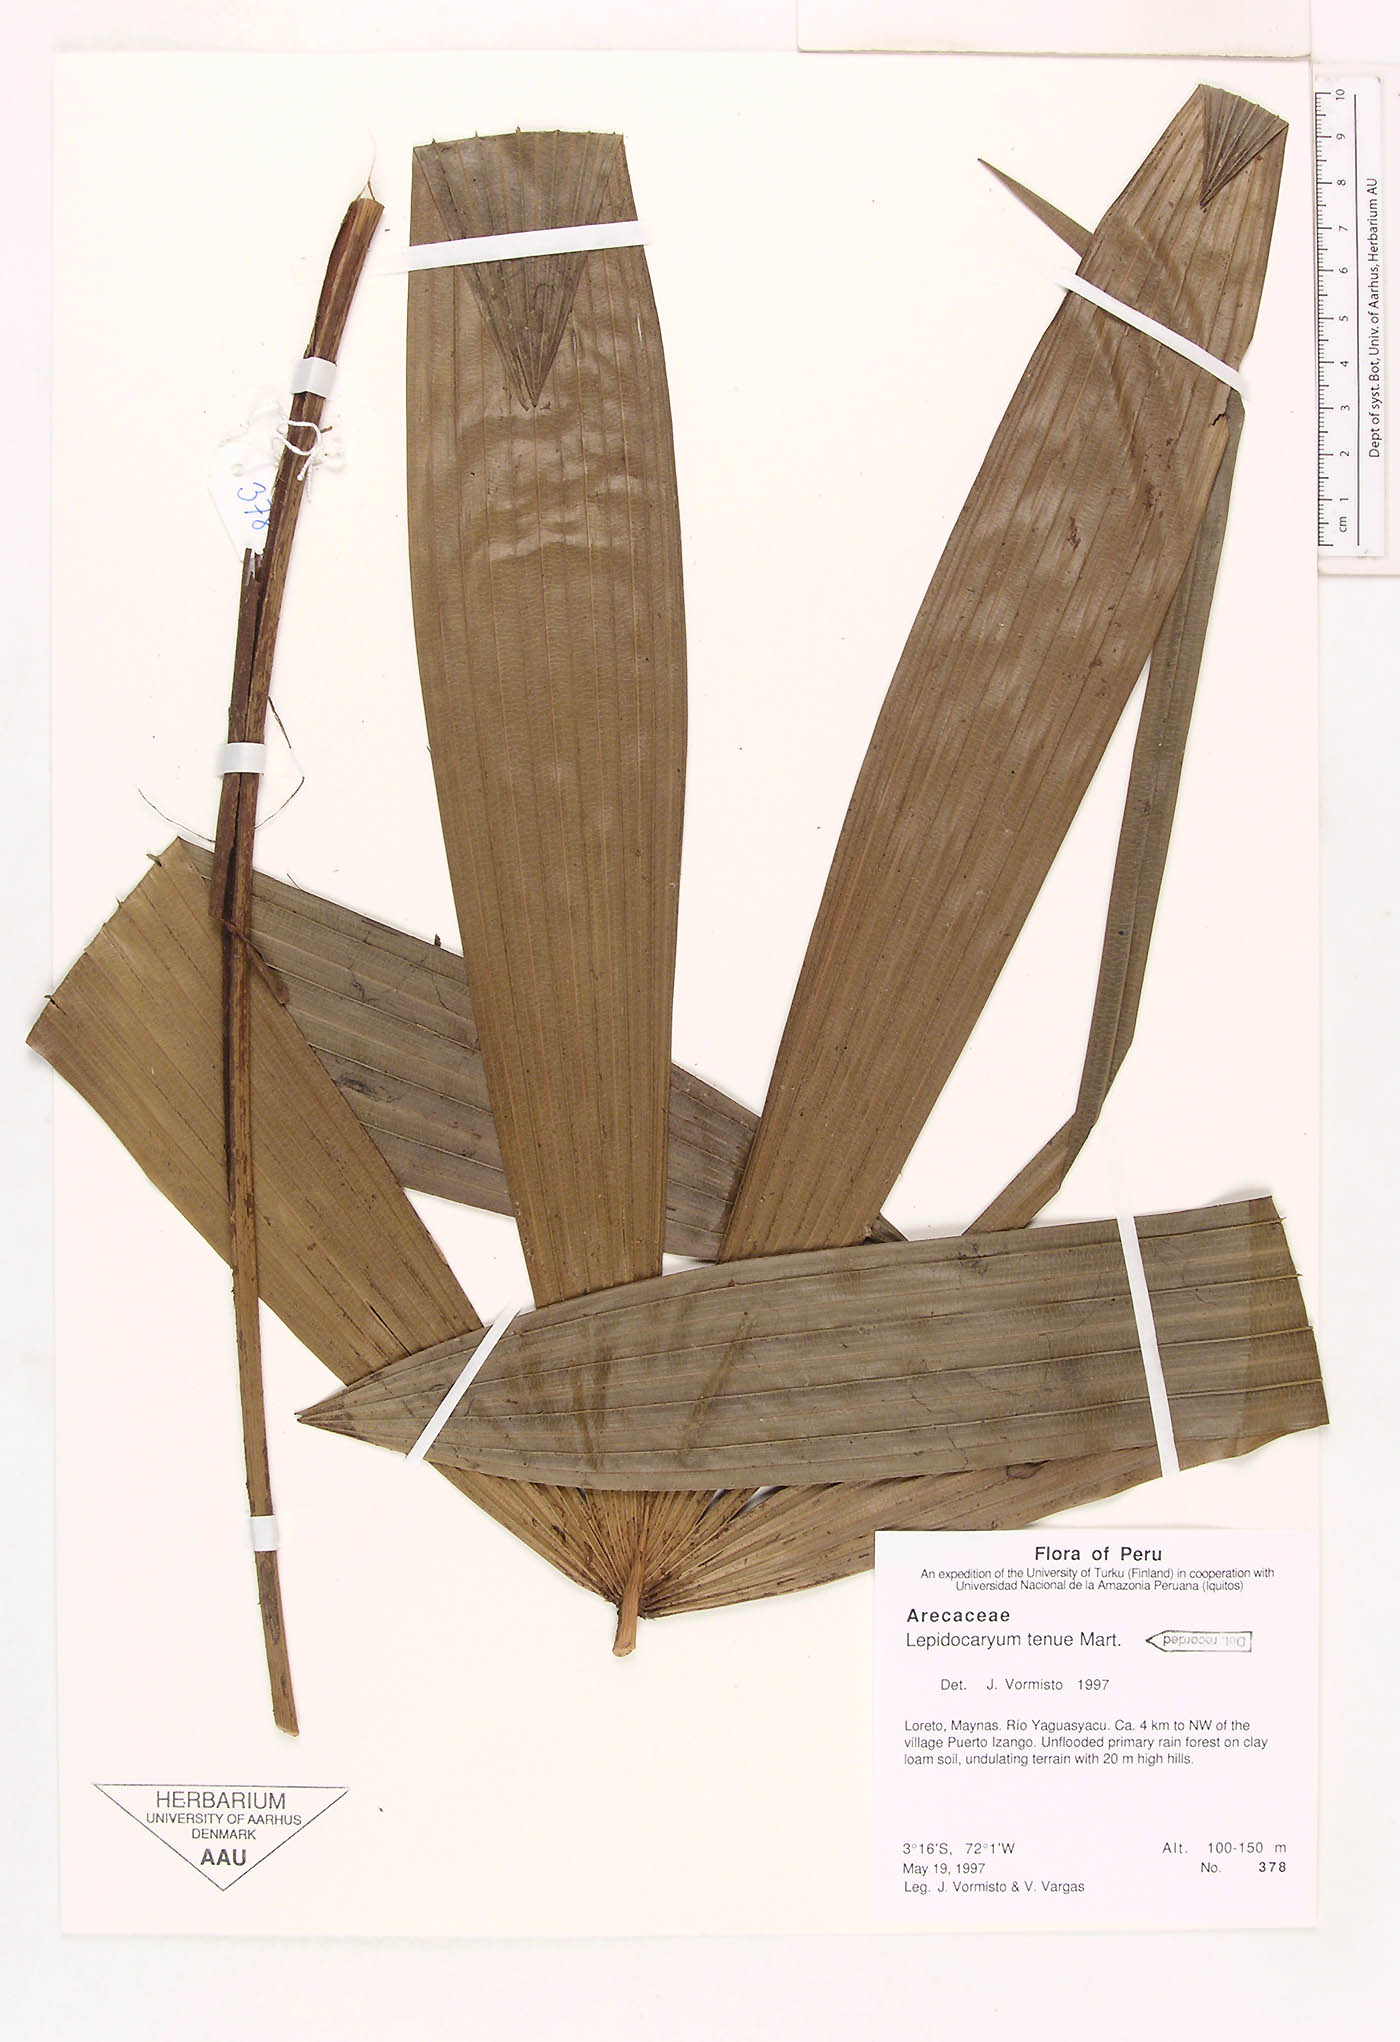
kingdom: Plantae
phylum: Tracheophyta
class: Liliopsida
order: Arecales
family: Arecaceae
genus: Lepidocaryum
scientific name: Lepidocaryum tenue
